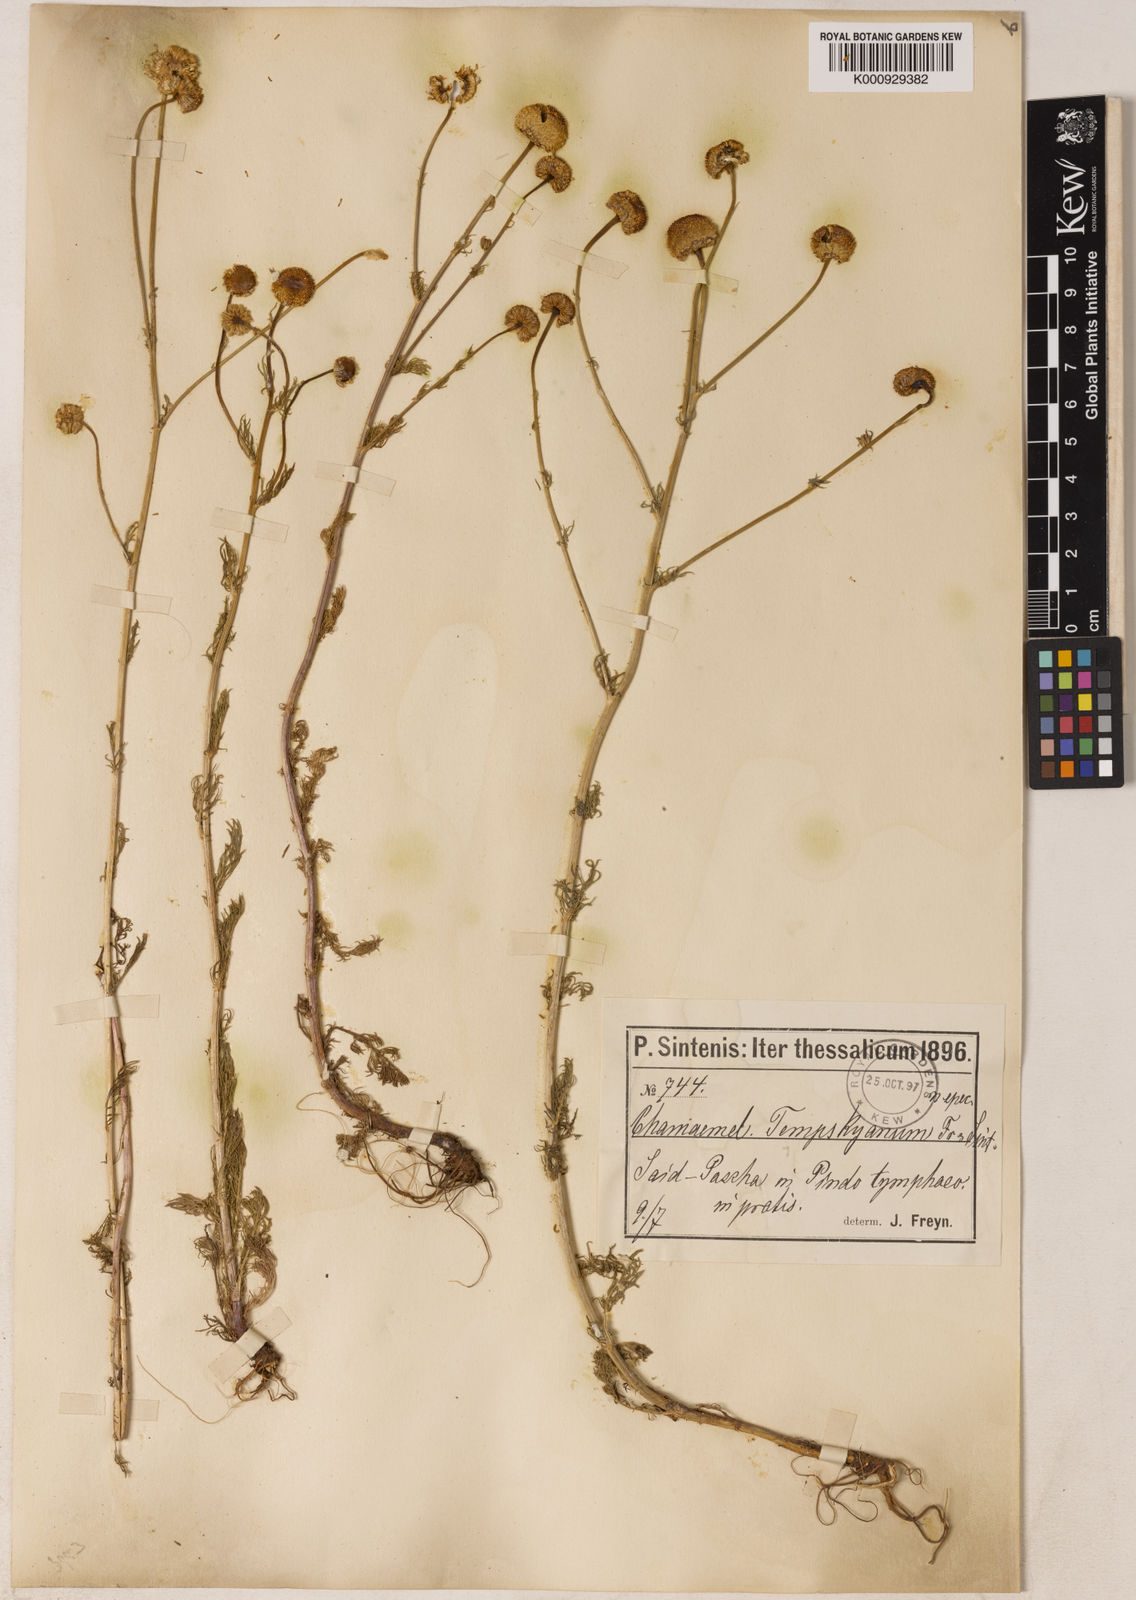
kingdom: Plantae
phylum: Tracheophyta
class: Magnoliopsida
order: Asterales
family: Asteraceae
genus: Tripleurospermum
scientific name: Tripleurospermum tempskyanum
